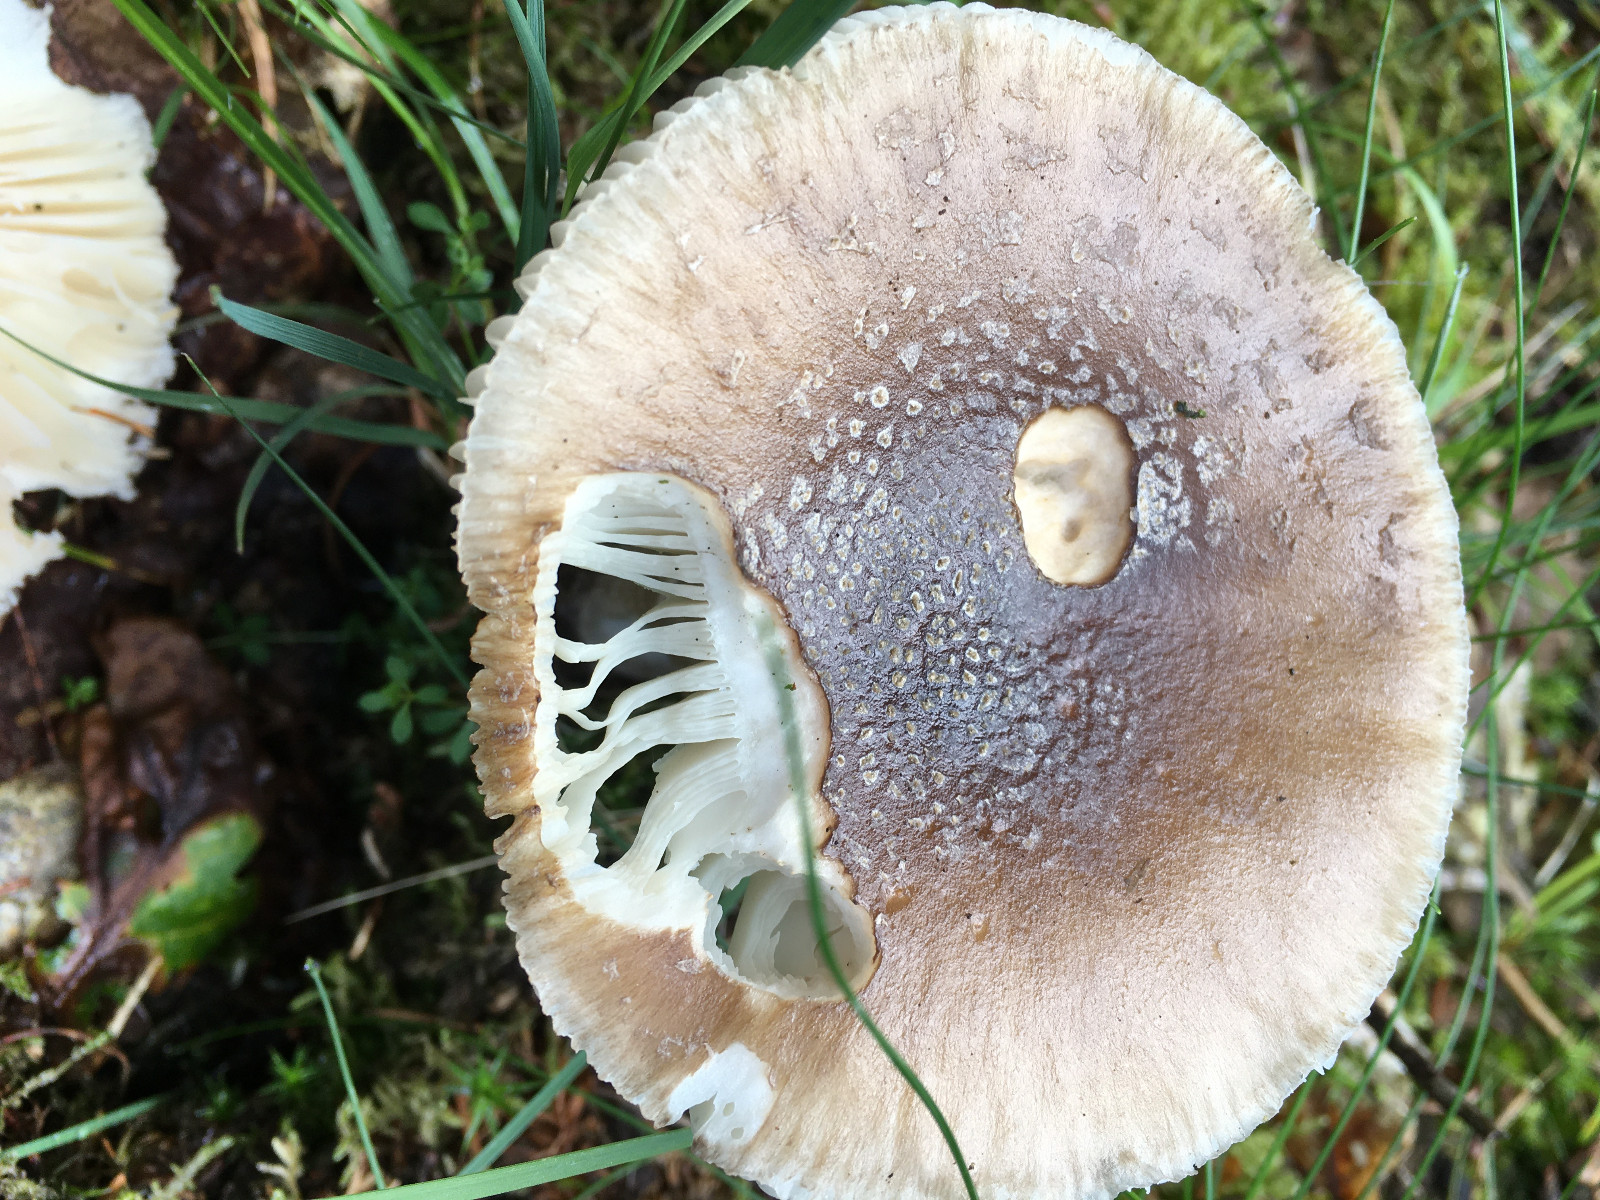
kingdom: Fungi
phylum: Basidiomycota
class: Agaricomycetes
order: Agaricales
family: Amanitaceae
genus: Amanita
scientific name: Amanita rubescens
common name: rødmende fluesvamp
